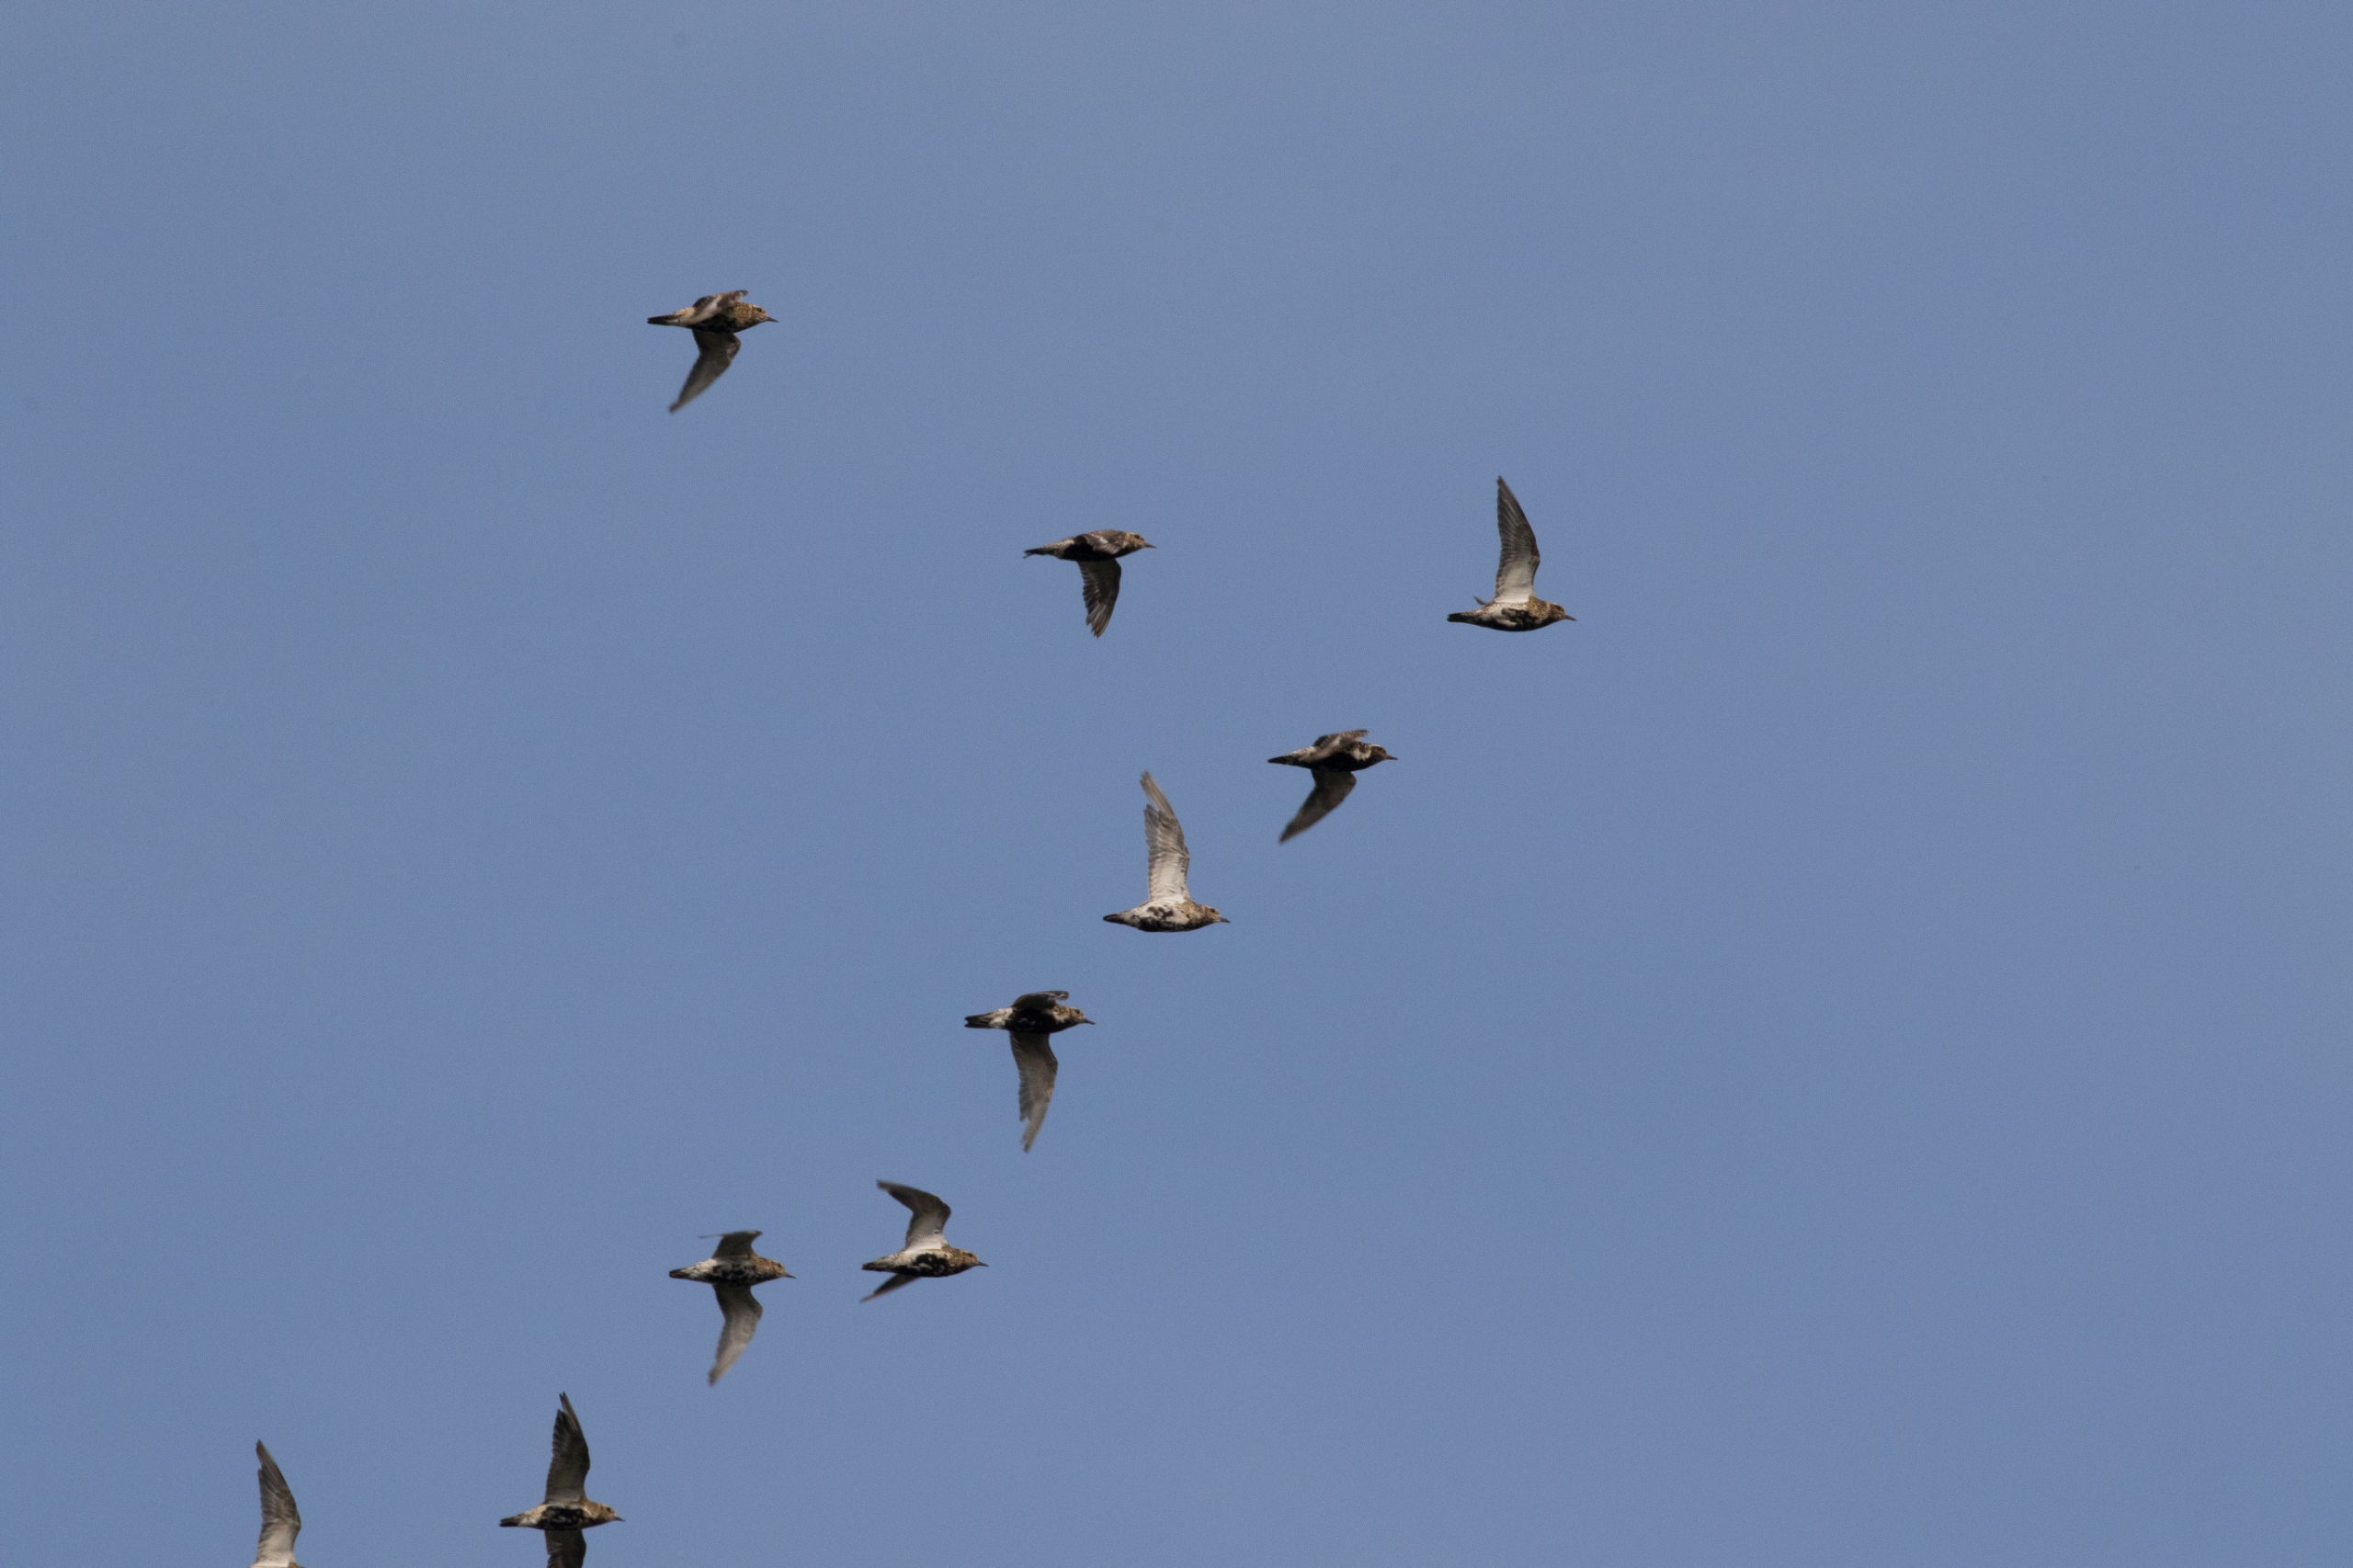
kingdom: Animalia
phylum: Chordata
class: Aves
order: Charadriiformes
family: Charadriidae
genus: Pluvialis
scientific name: Pluvialis apricaria
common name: Hjejle
